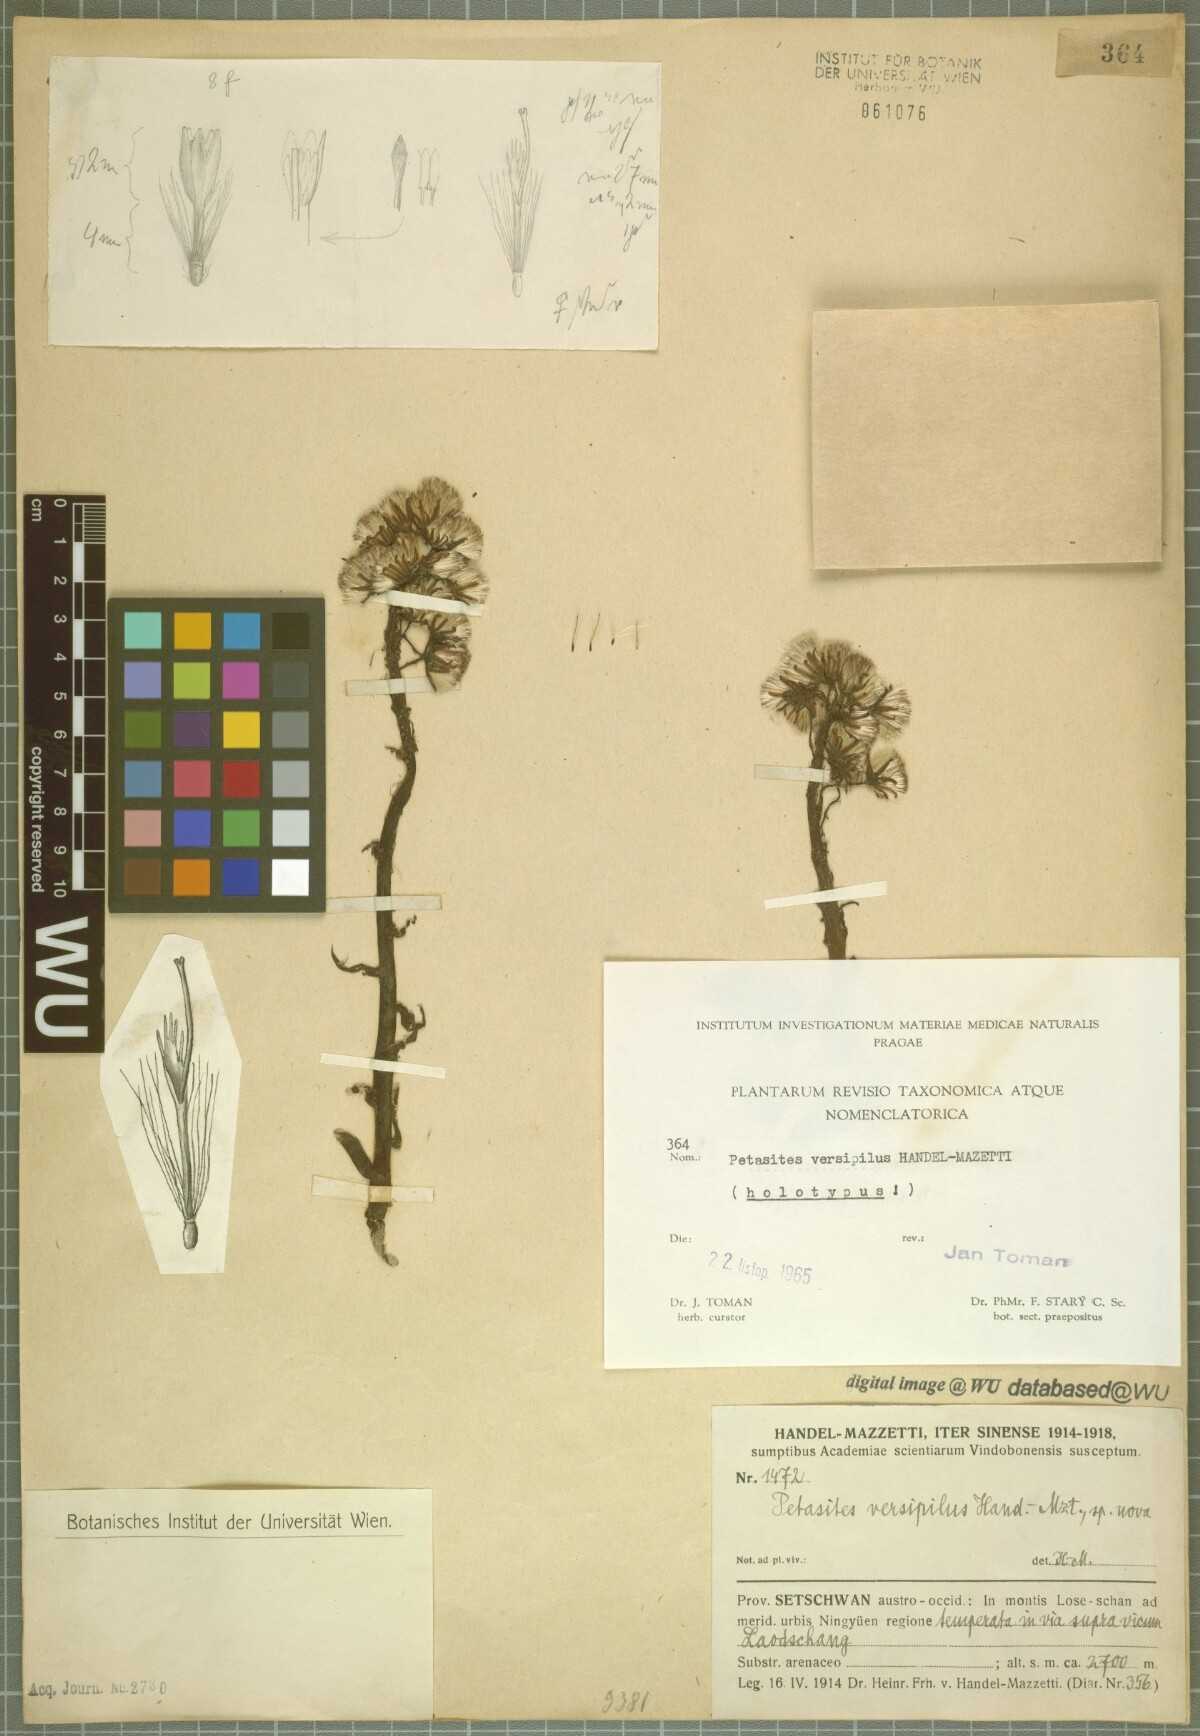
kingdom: Plantae
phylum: Tracheophyta
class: Magnoliopsida
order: Asterales
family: Asteraceae
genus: Petasites
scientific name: Petasites versipilus
